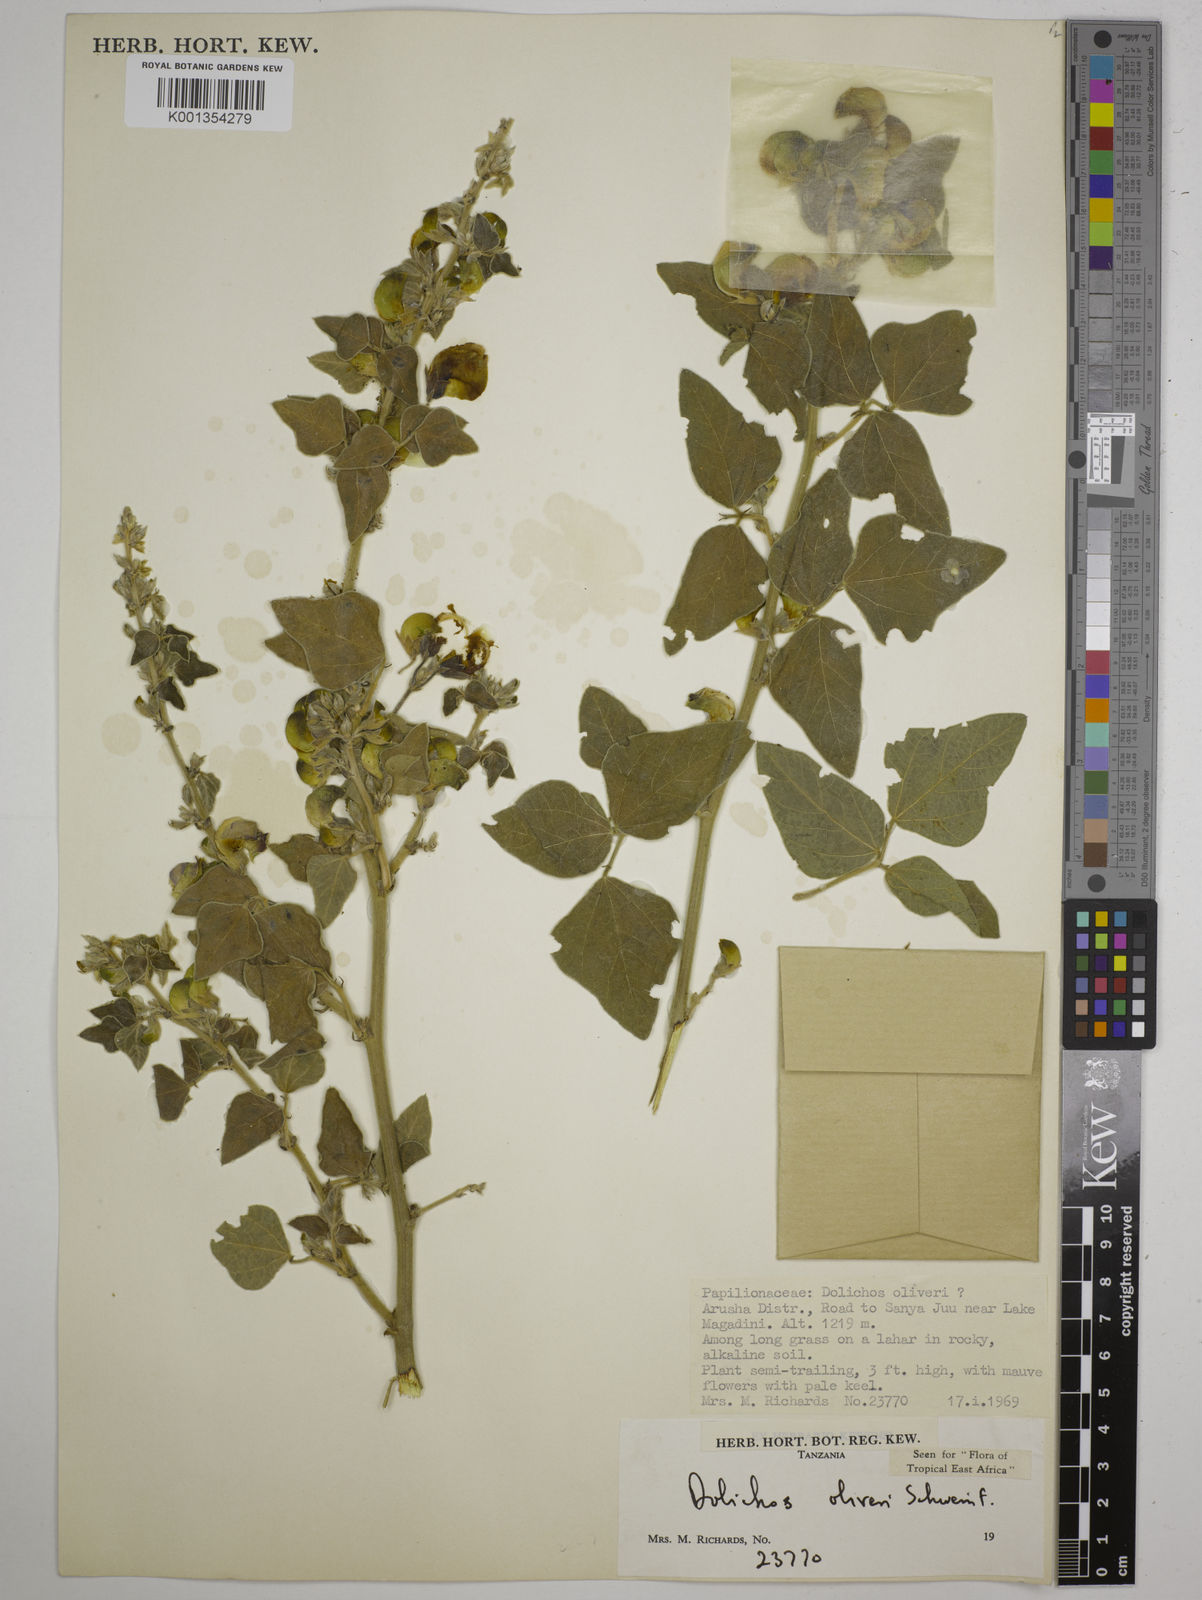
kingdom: Plantae
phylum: Tracheophyta
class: Magnoliopsida
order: Fabales
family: Fabaceae
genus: Dolichos
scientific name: Dolichos oliveri
